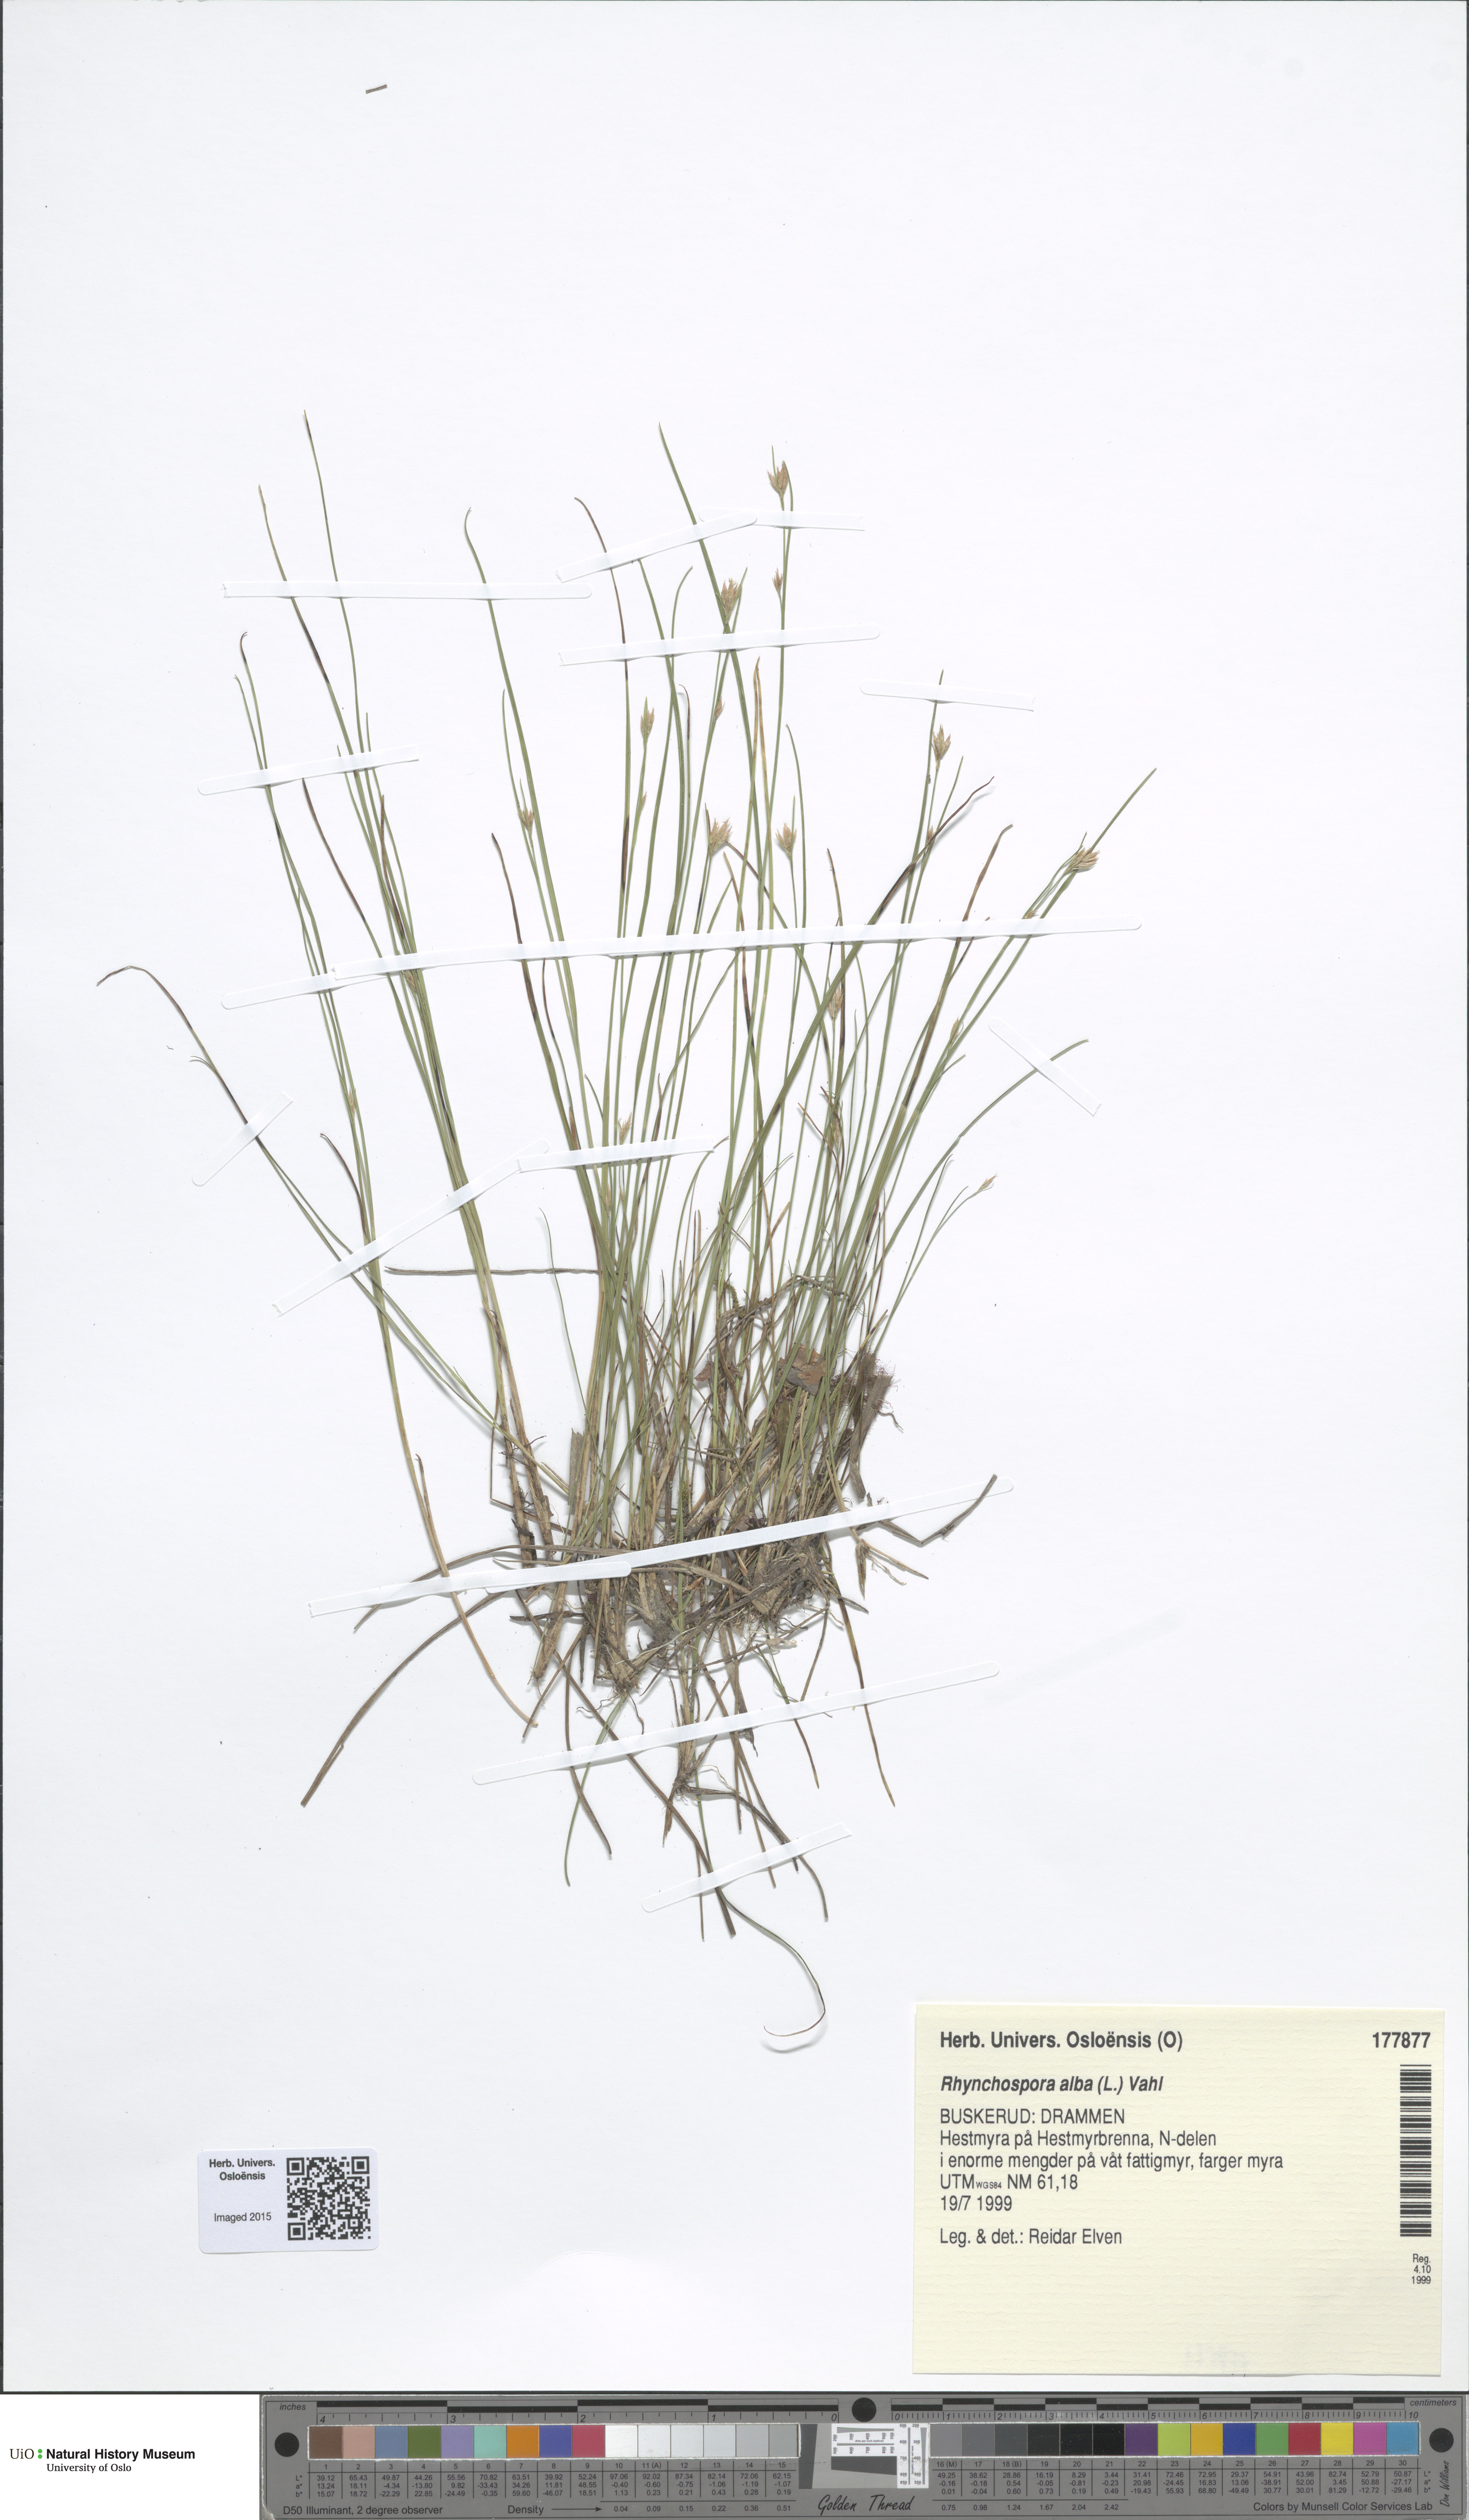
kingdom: Plantae
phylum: Tracheophyta
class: Liliopsida
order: Poales
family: Cyperaceae
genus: Rhynchospora
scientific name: Rhynchospora alba
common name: White beak-sedge
